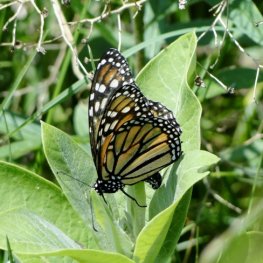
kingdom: Animalia
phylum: Arthropoda
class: Insecta
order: Lepidoptera
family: Nymphalidae
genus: Danaus
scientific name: Danaus plexippus
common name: Monarch
